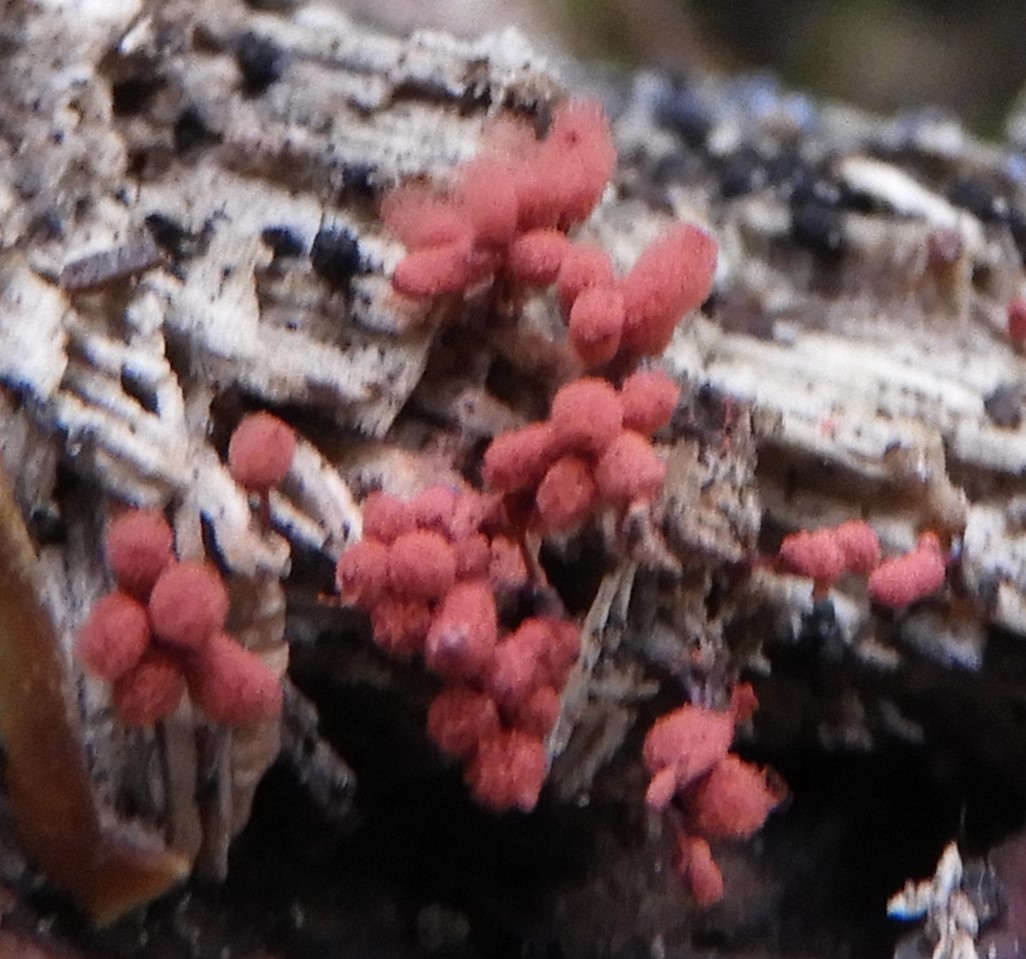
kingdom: Protozoa
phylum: Mycetozoa
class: Myxomycetes
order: Trichiales
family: Arcyriaceae
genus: Arcyria
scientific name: Arcyria denudata
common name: karminrød skålsvøb
